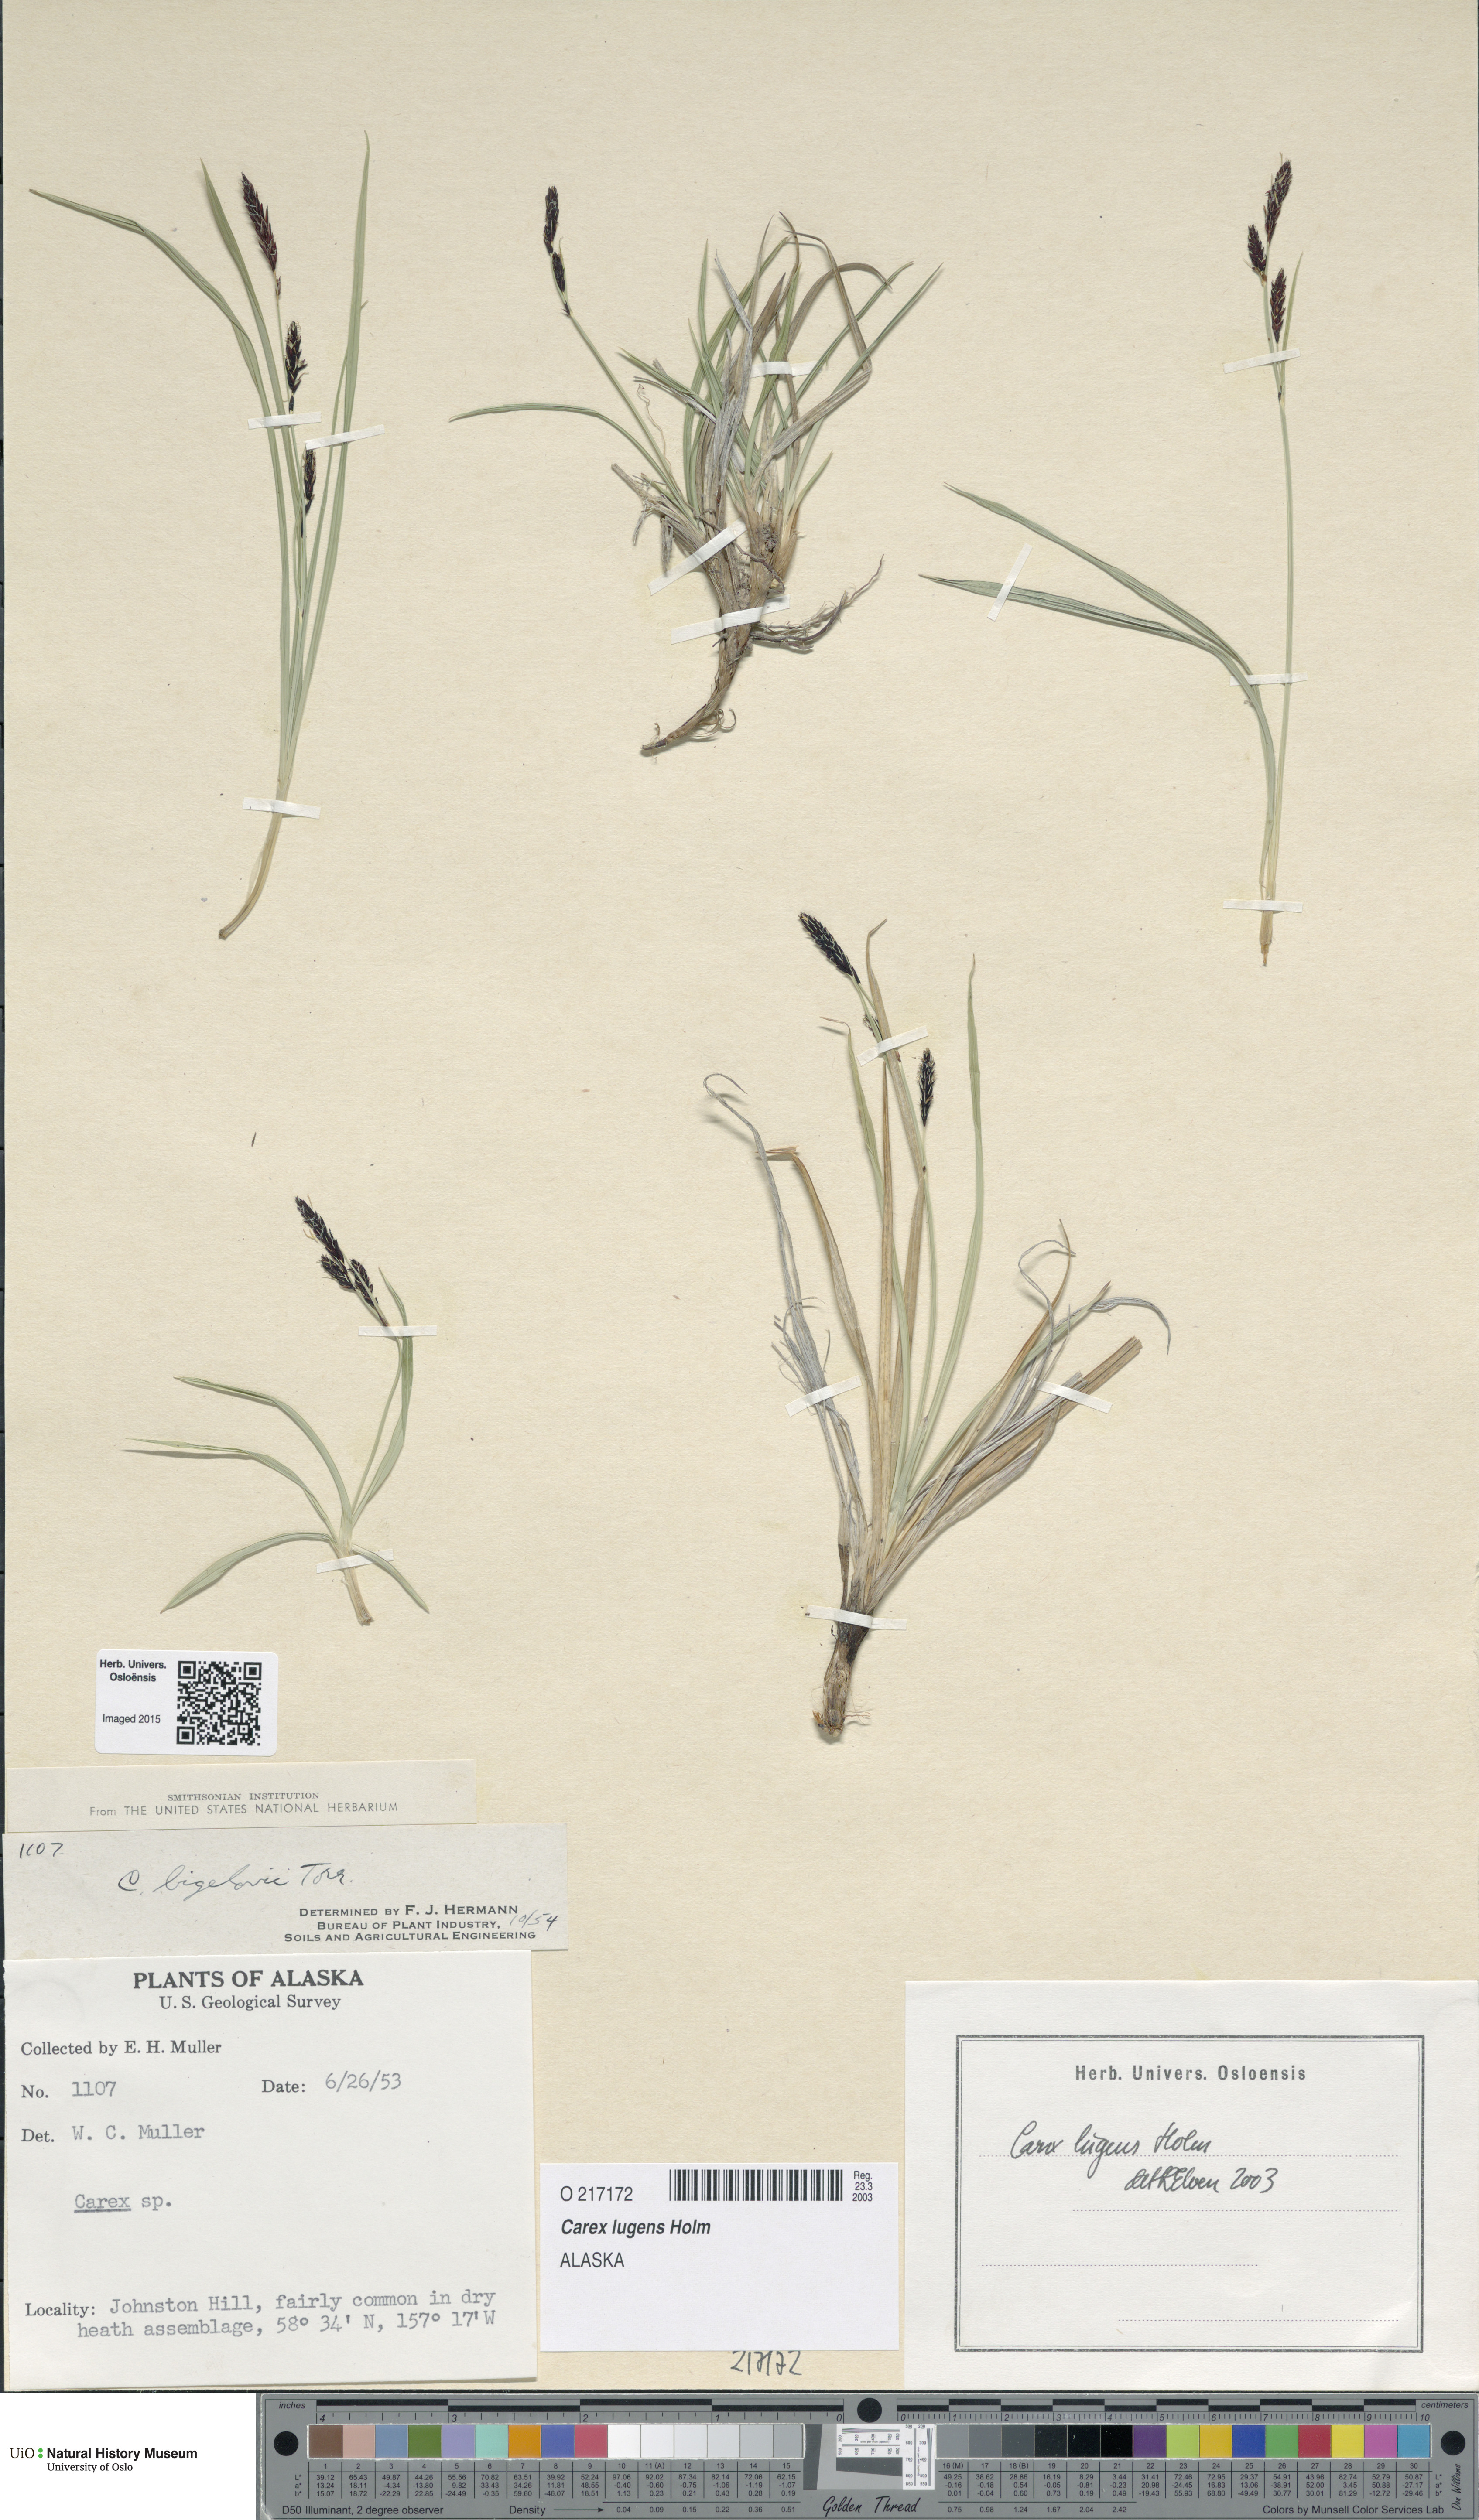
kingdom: Plantae
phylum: Tracheophyta
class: Liliopsida
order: Poales
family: Cyperaceae
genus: Carex
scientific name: Carex bigelowii
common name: Stiff sedge
